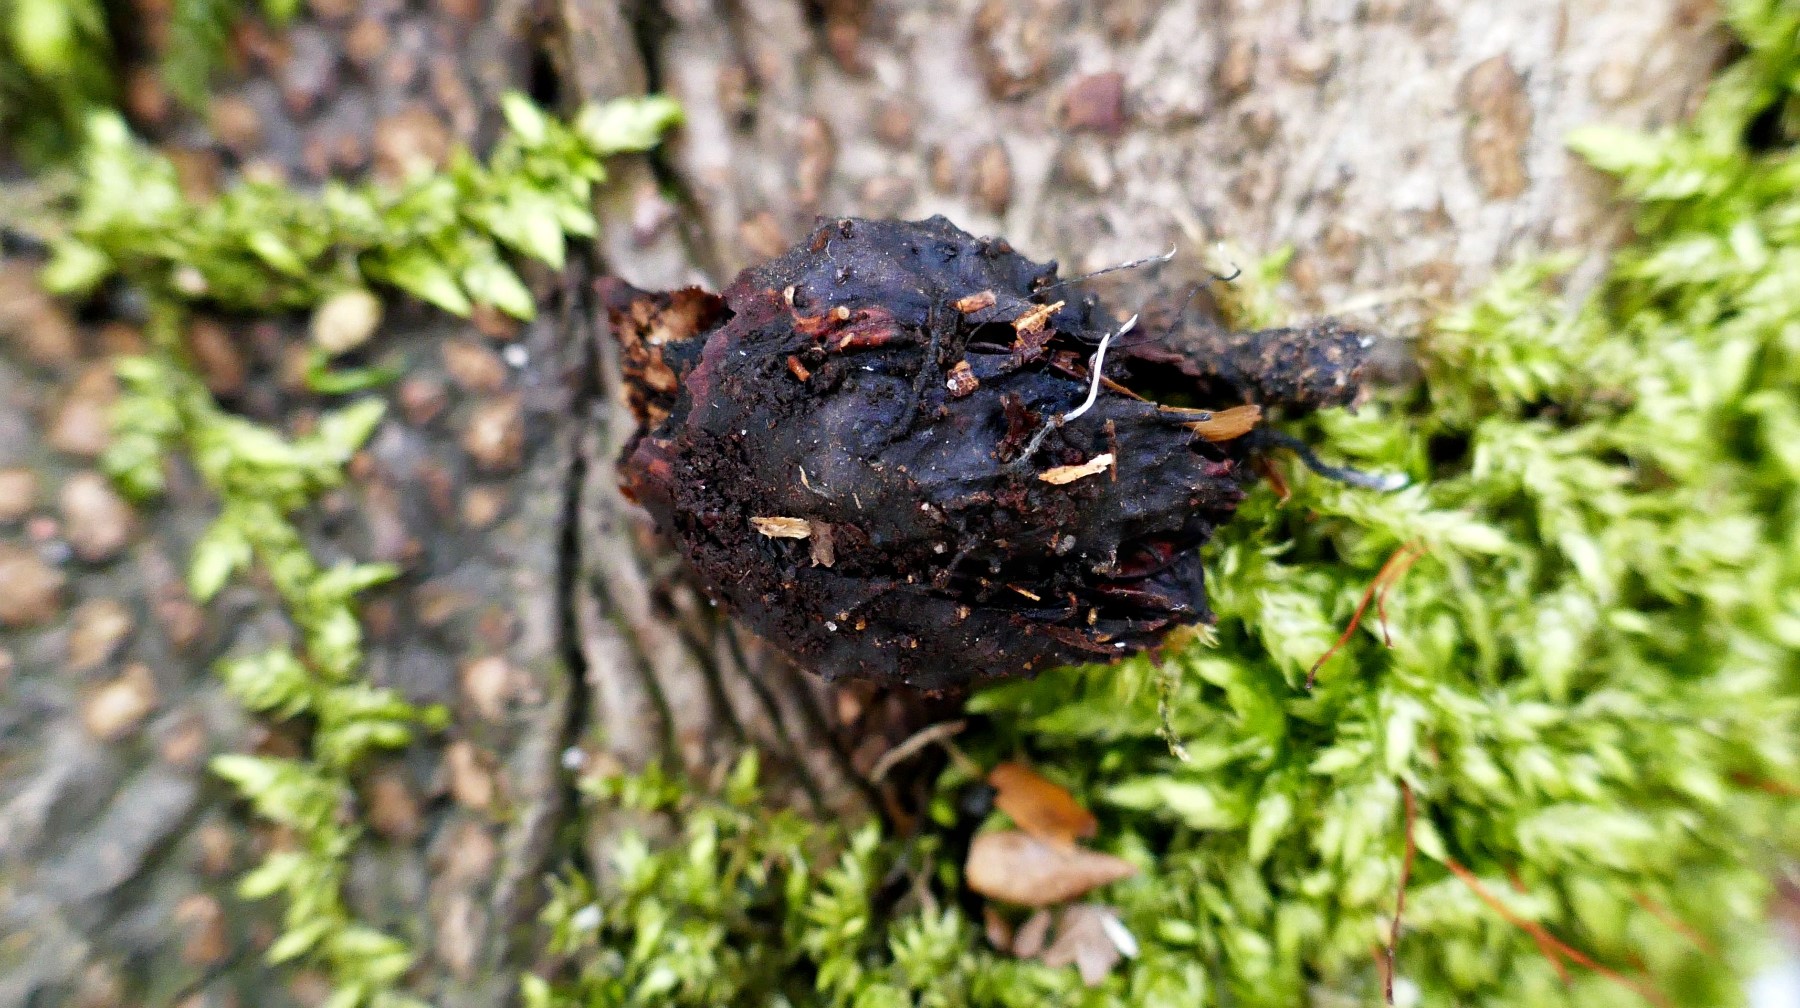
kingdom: Fungi
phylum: Ascomycota
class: Sordariomycetes
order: Xylariales
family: Xylariaceae
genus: Xylaria
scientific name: Xylaria carpophila
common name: bogskål-stødsvamp
